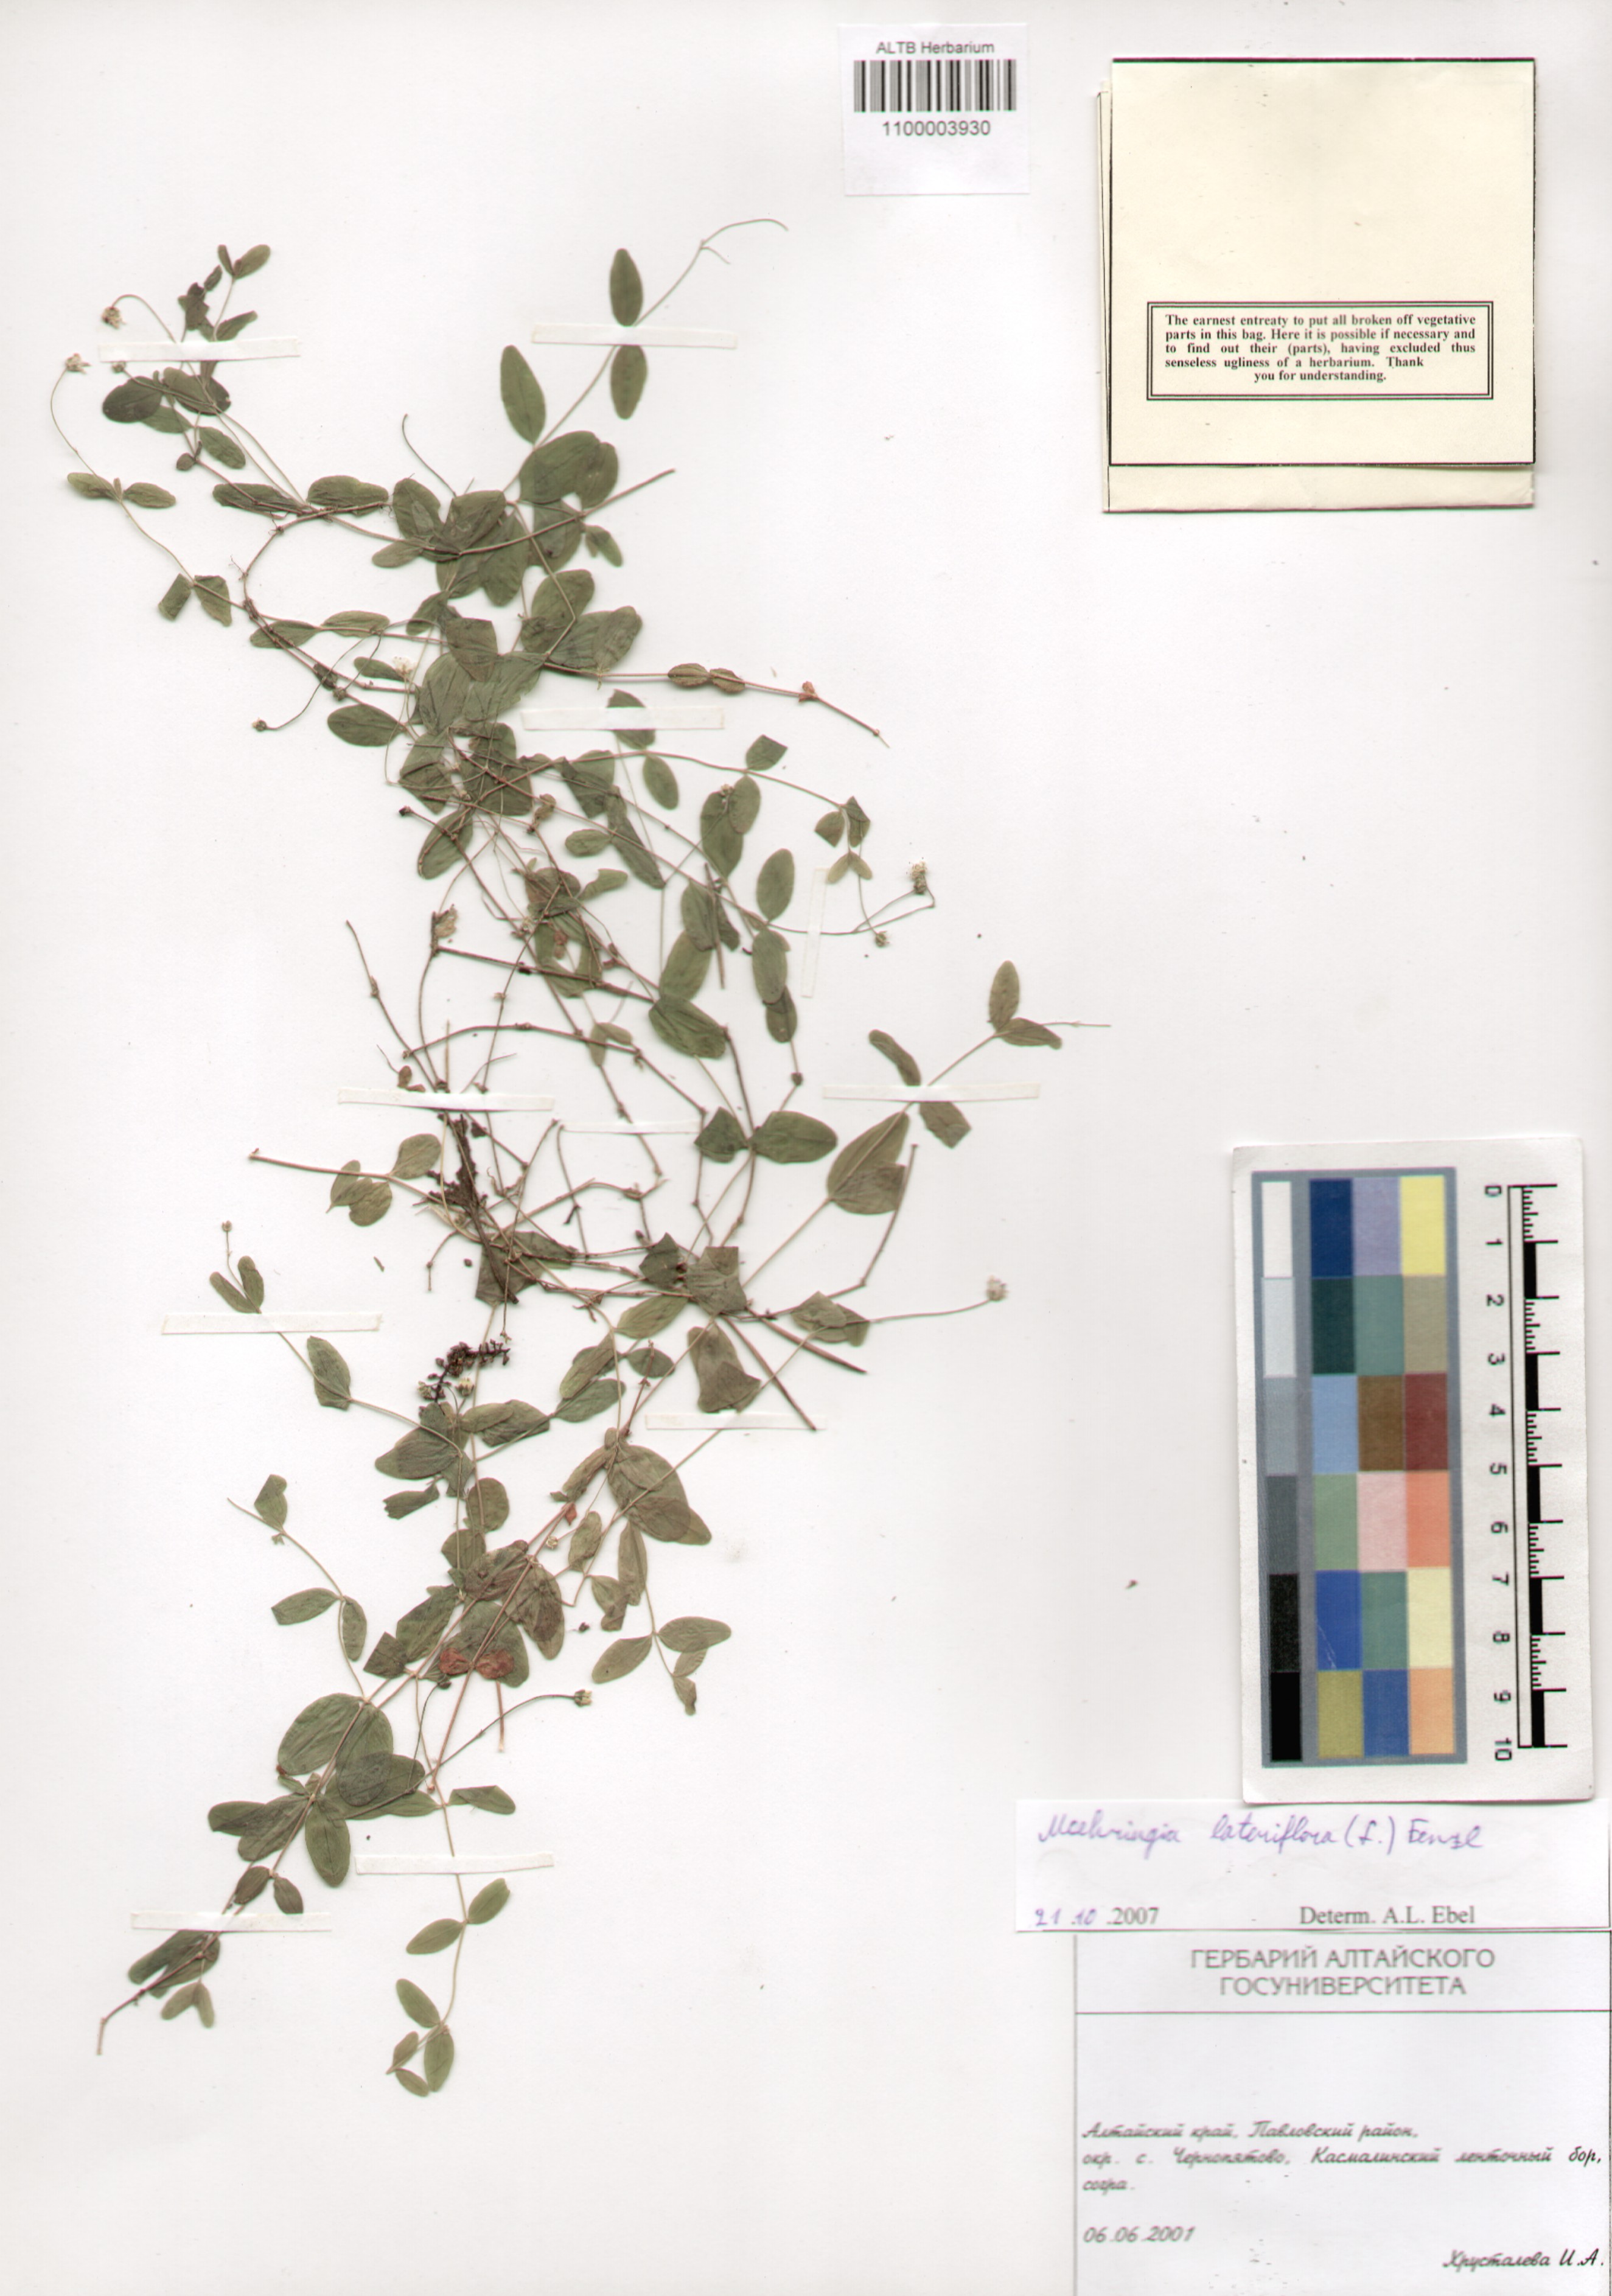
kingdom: Plantae
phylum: Tracheophyta
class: Magnoliopsida
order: Caryophyllales
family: Caryophyllaceae
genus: Moehringia
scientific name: Moehringia lateriflora
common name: Blunt-leaved sandwort
